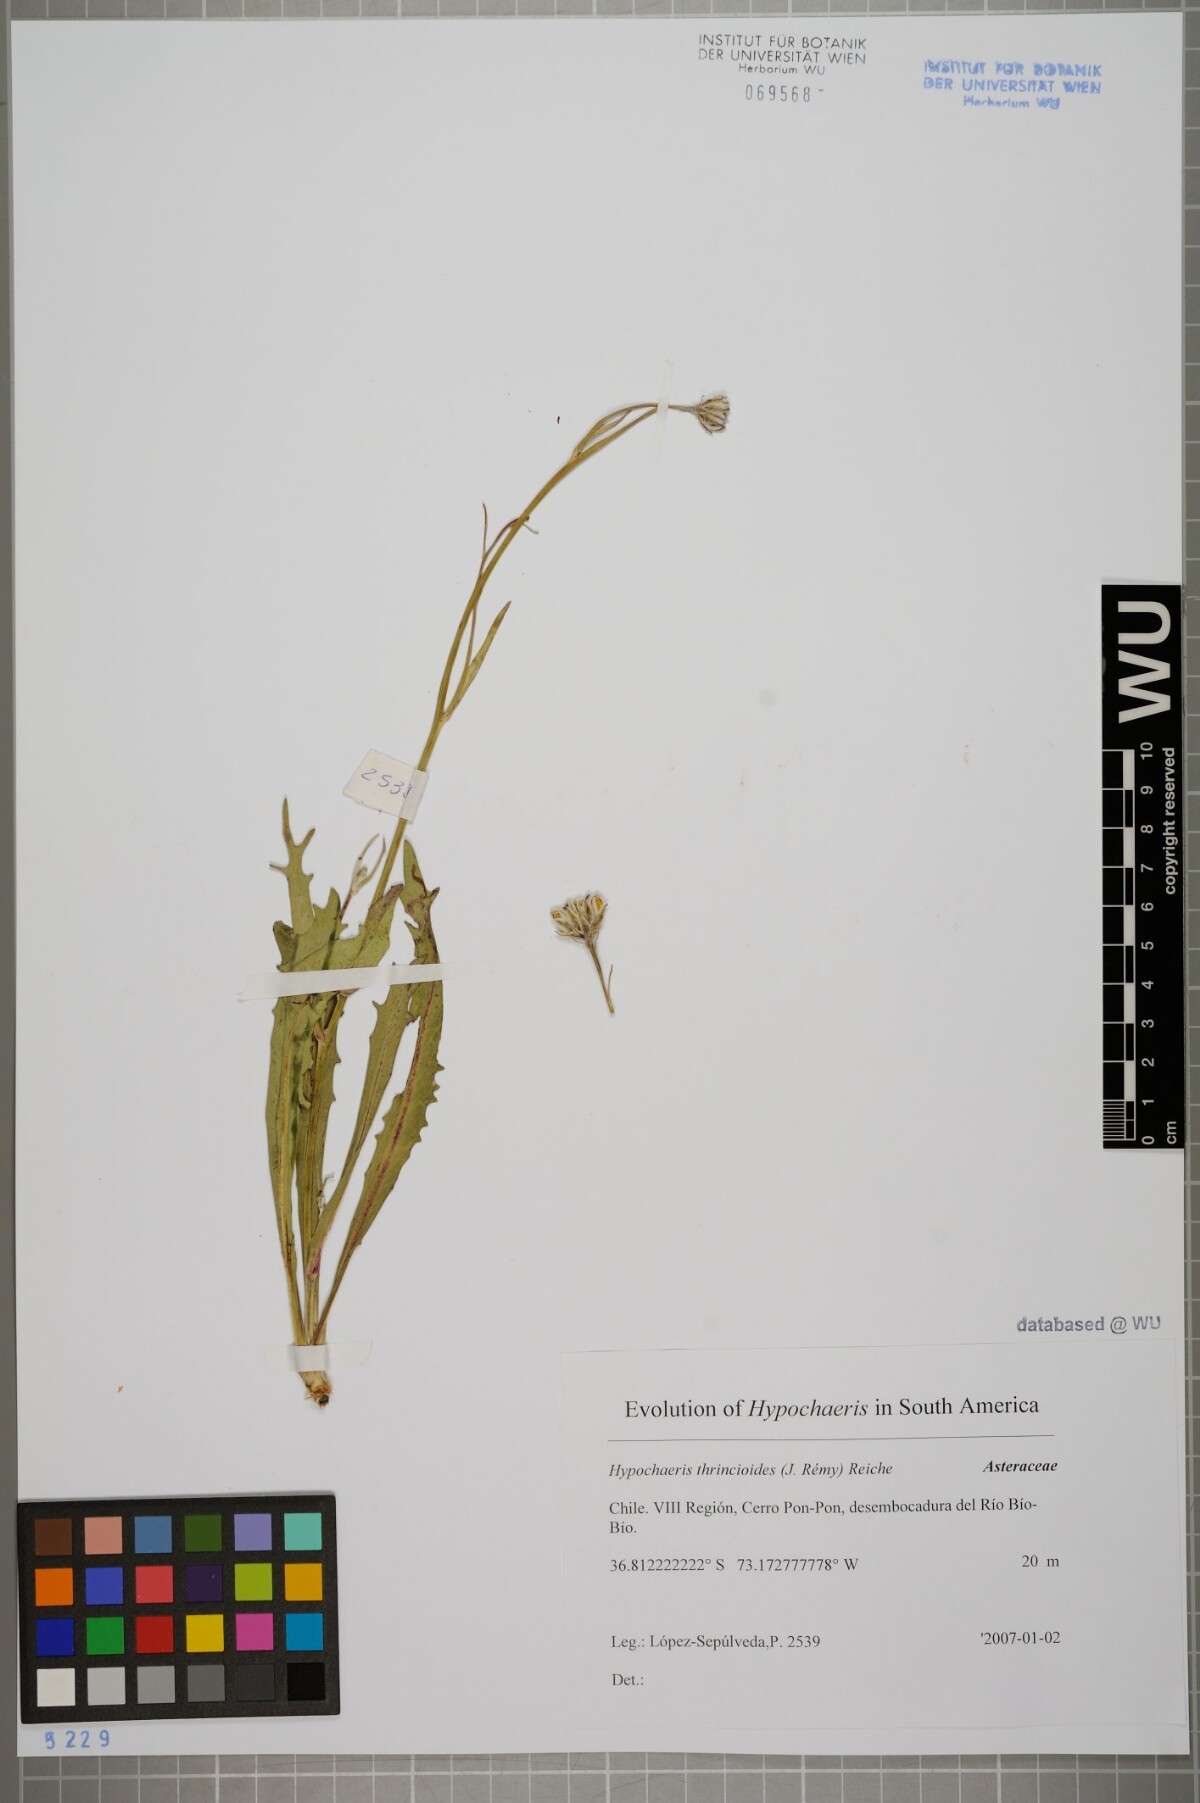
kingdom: Plantae
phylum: Tracheophyta
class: Magnoliopsida
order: Asterales
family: Asteraceae
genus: Hypochaeris
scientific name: Hypochaeris apargioides
